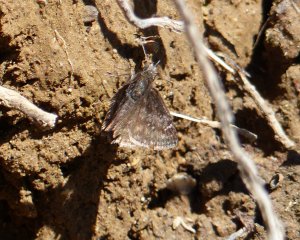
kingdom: Animalia
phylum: Arthropoda
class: Insecta
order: Lepidoptera
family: Hesperiidae
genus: Gesta
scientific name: Gesta
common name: Persius Duskywing
